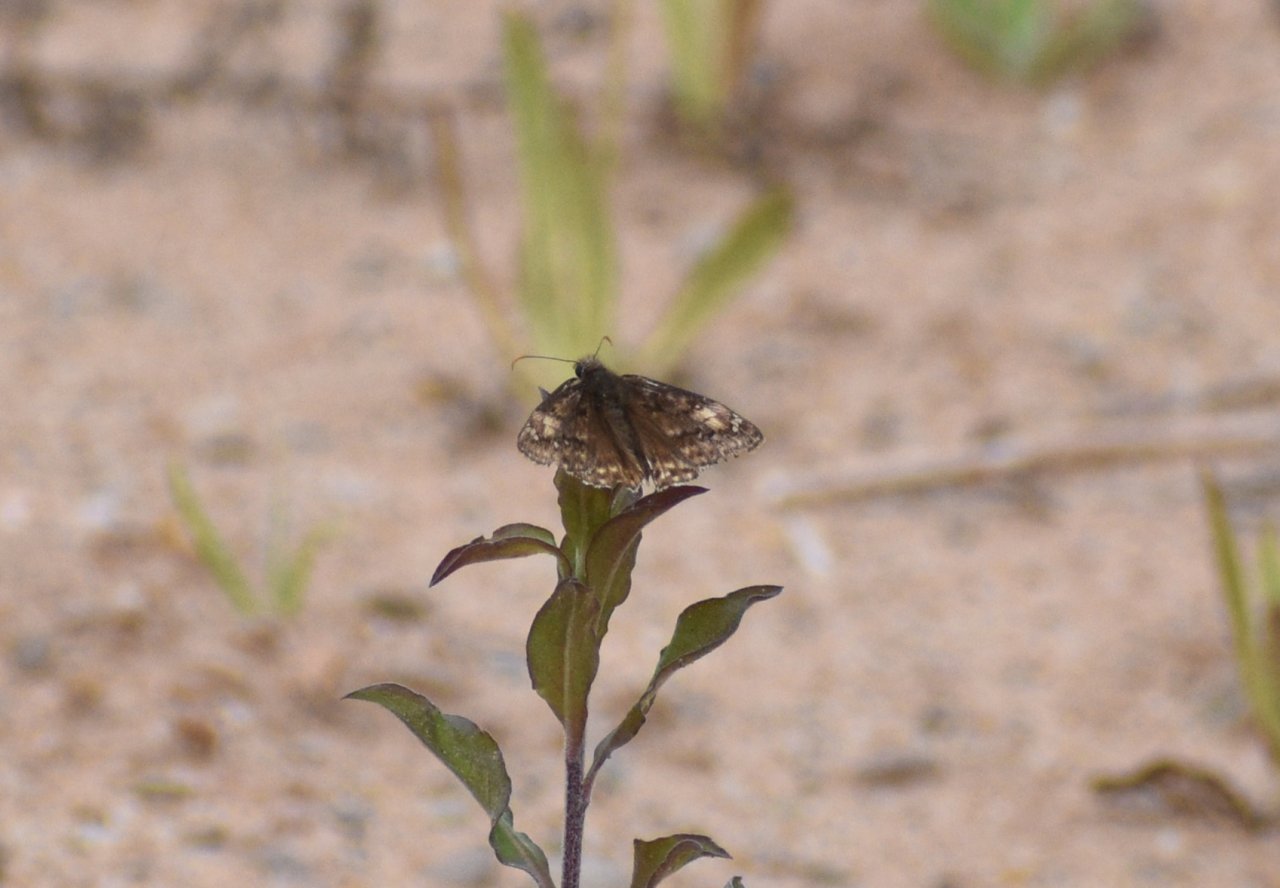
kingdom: Animalia
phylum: Arthropoda
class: Insecta
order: Lepidoptera
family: Hesperiidae
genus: Gesta
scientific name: Gesta
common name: Juvenal's Duskywing
